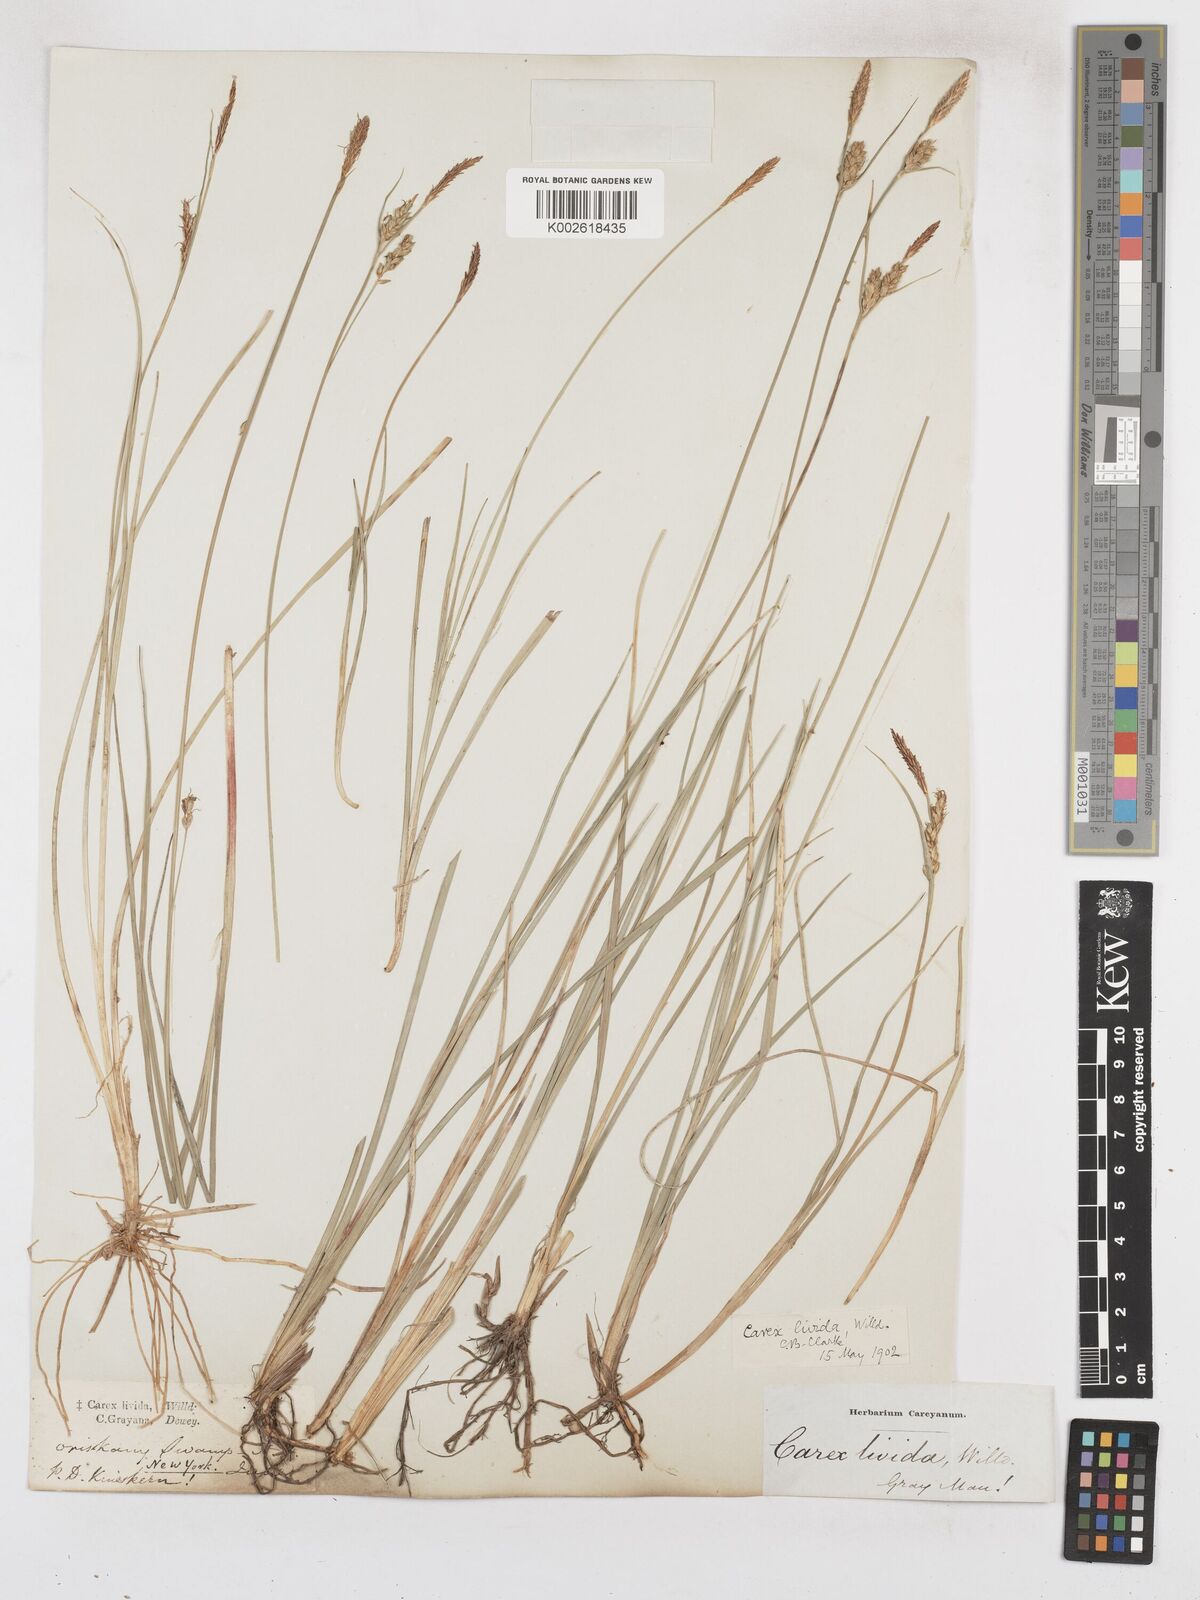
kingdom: Plantae
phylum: Tracheophyta
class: Liliopsida
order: Poales
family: Cyperaceae
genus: Carex
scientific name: Carex livida
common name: Livid sedge
